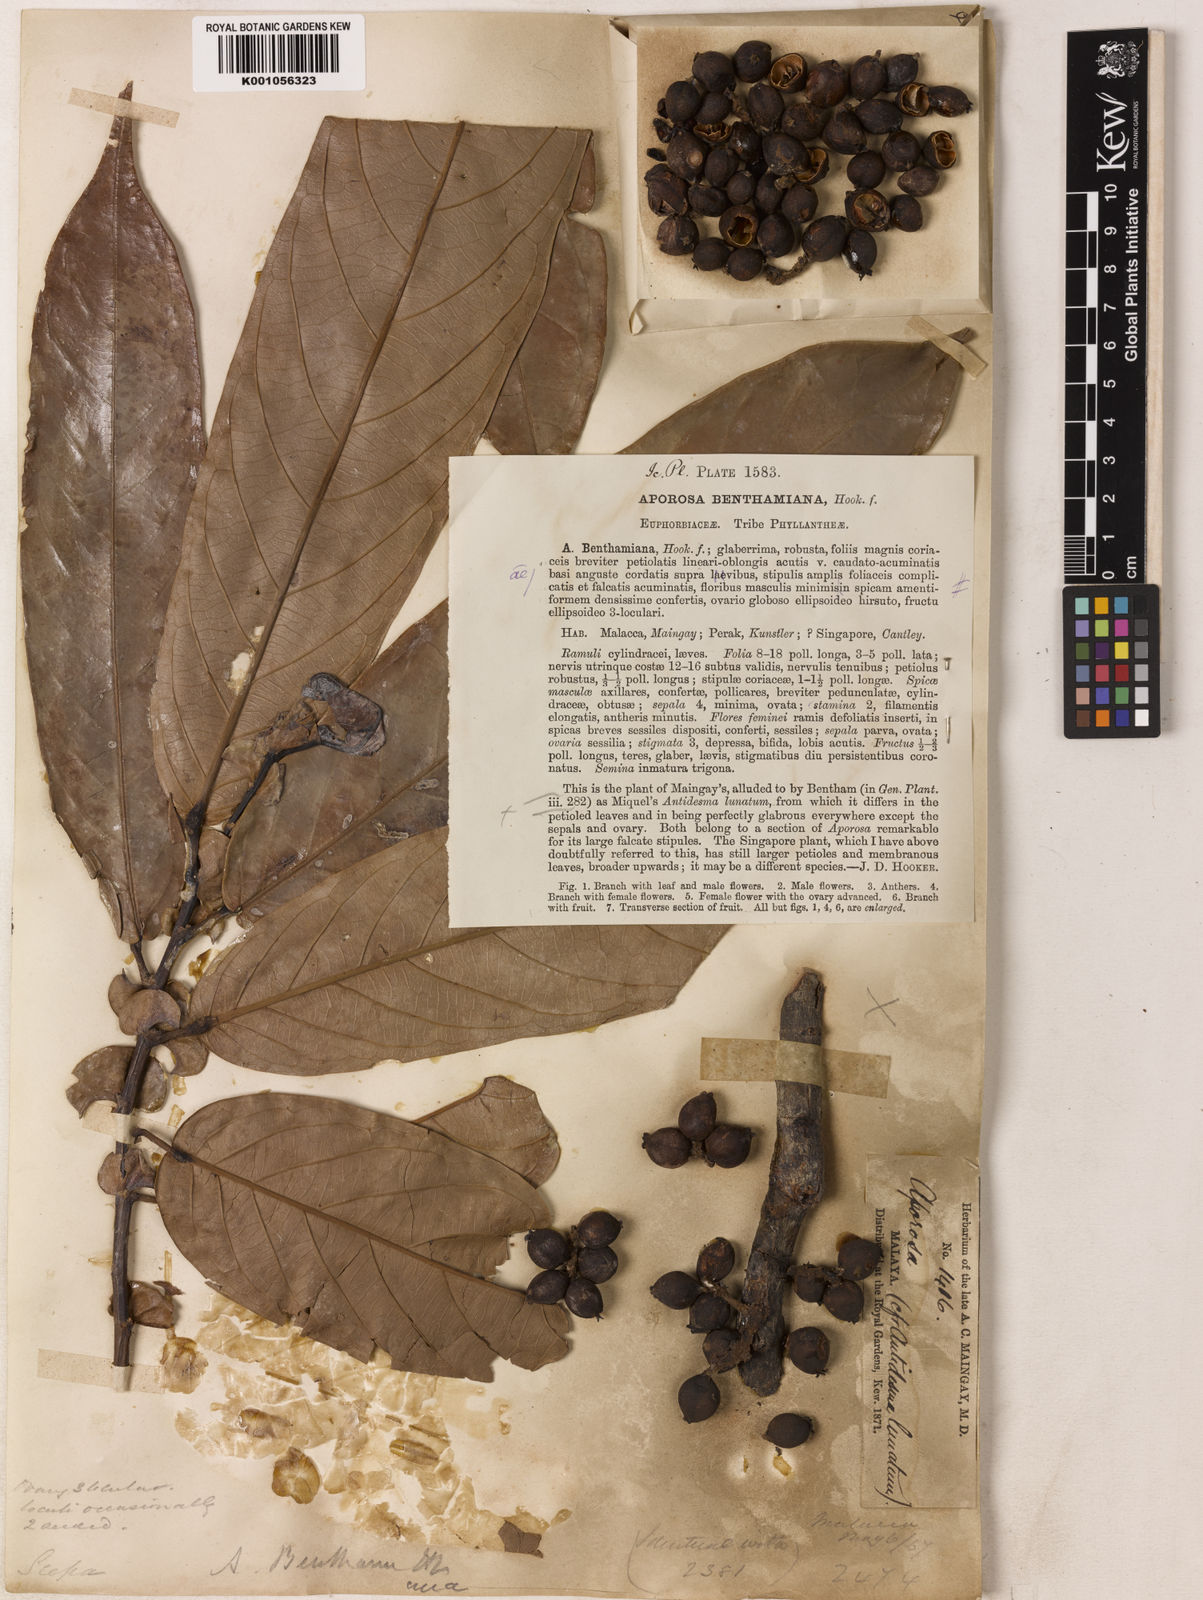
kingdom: Plantae
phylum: Tracheophyta
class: Magnoliopsida
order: Malpighiales
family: Phyllanthaceae
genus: Aporosa
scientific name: Aporosa benthamiana
